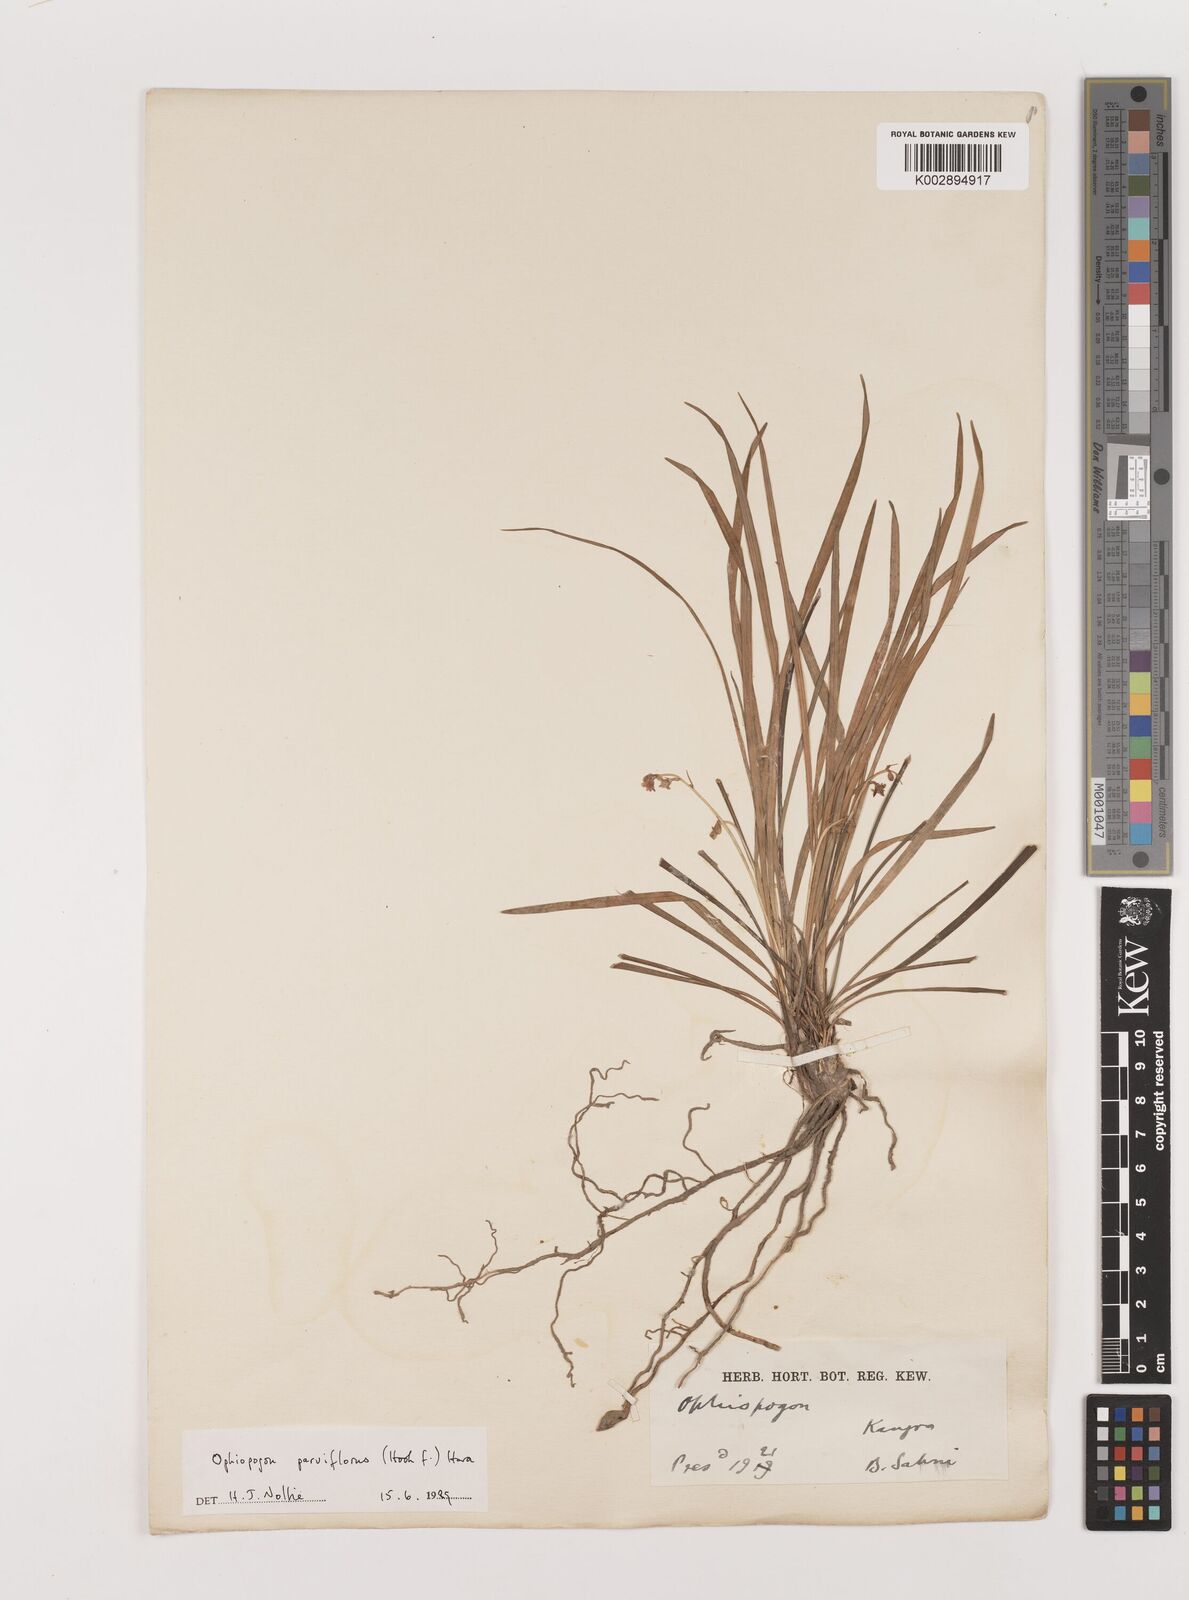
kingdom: Plantae
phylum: Tracheophyta
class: Liliopsida
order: Asparagales
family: Asparagaceae
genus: Ophiopogon
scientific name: Ophiopogon intermedius
